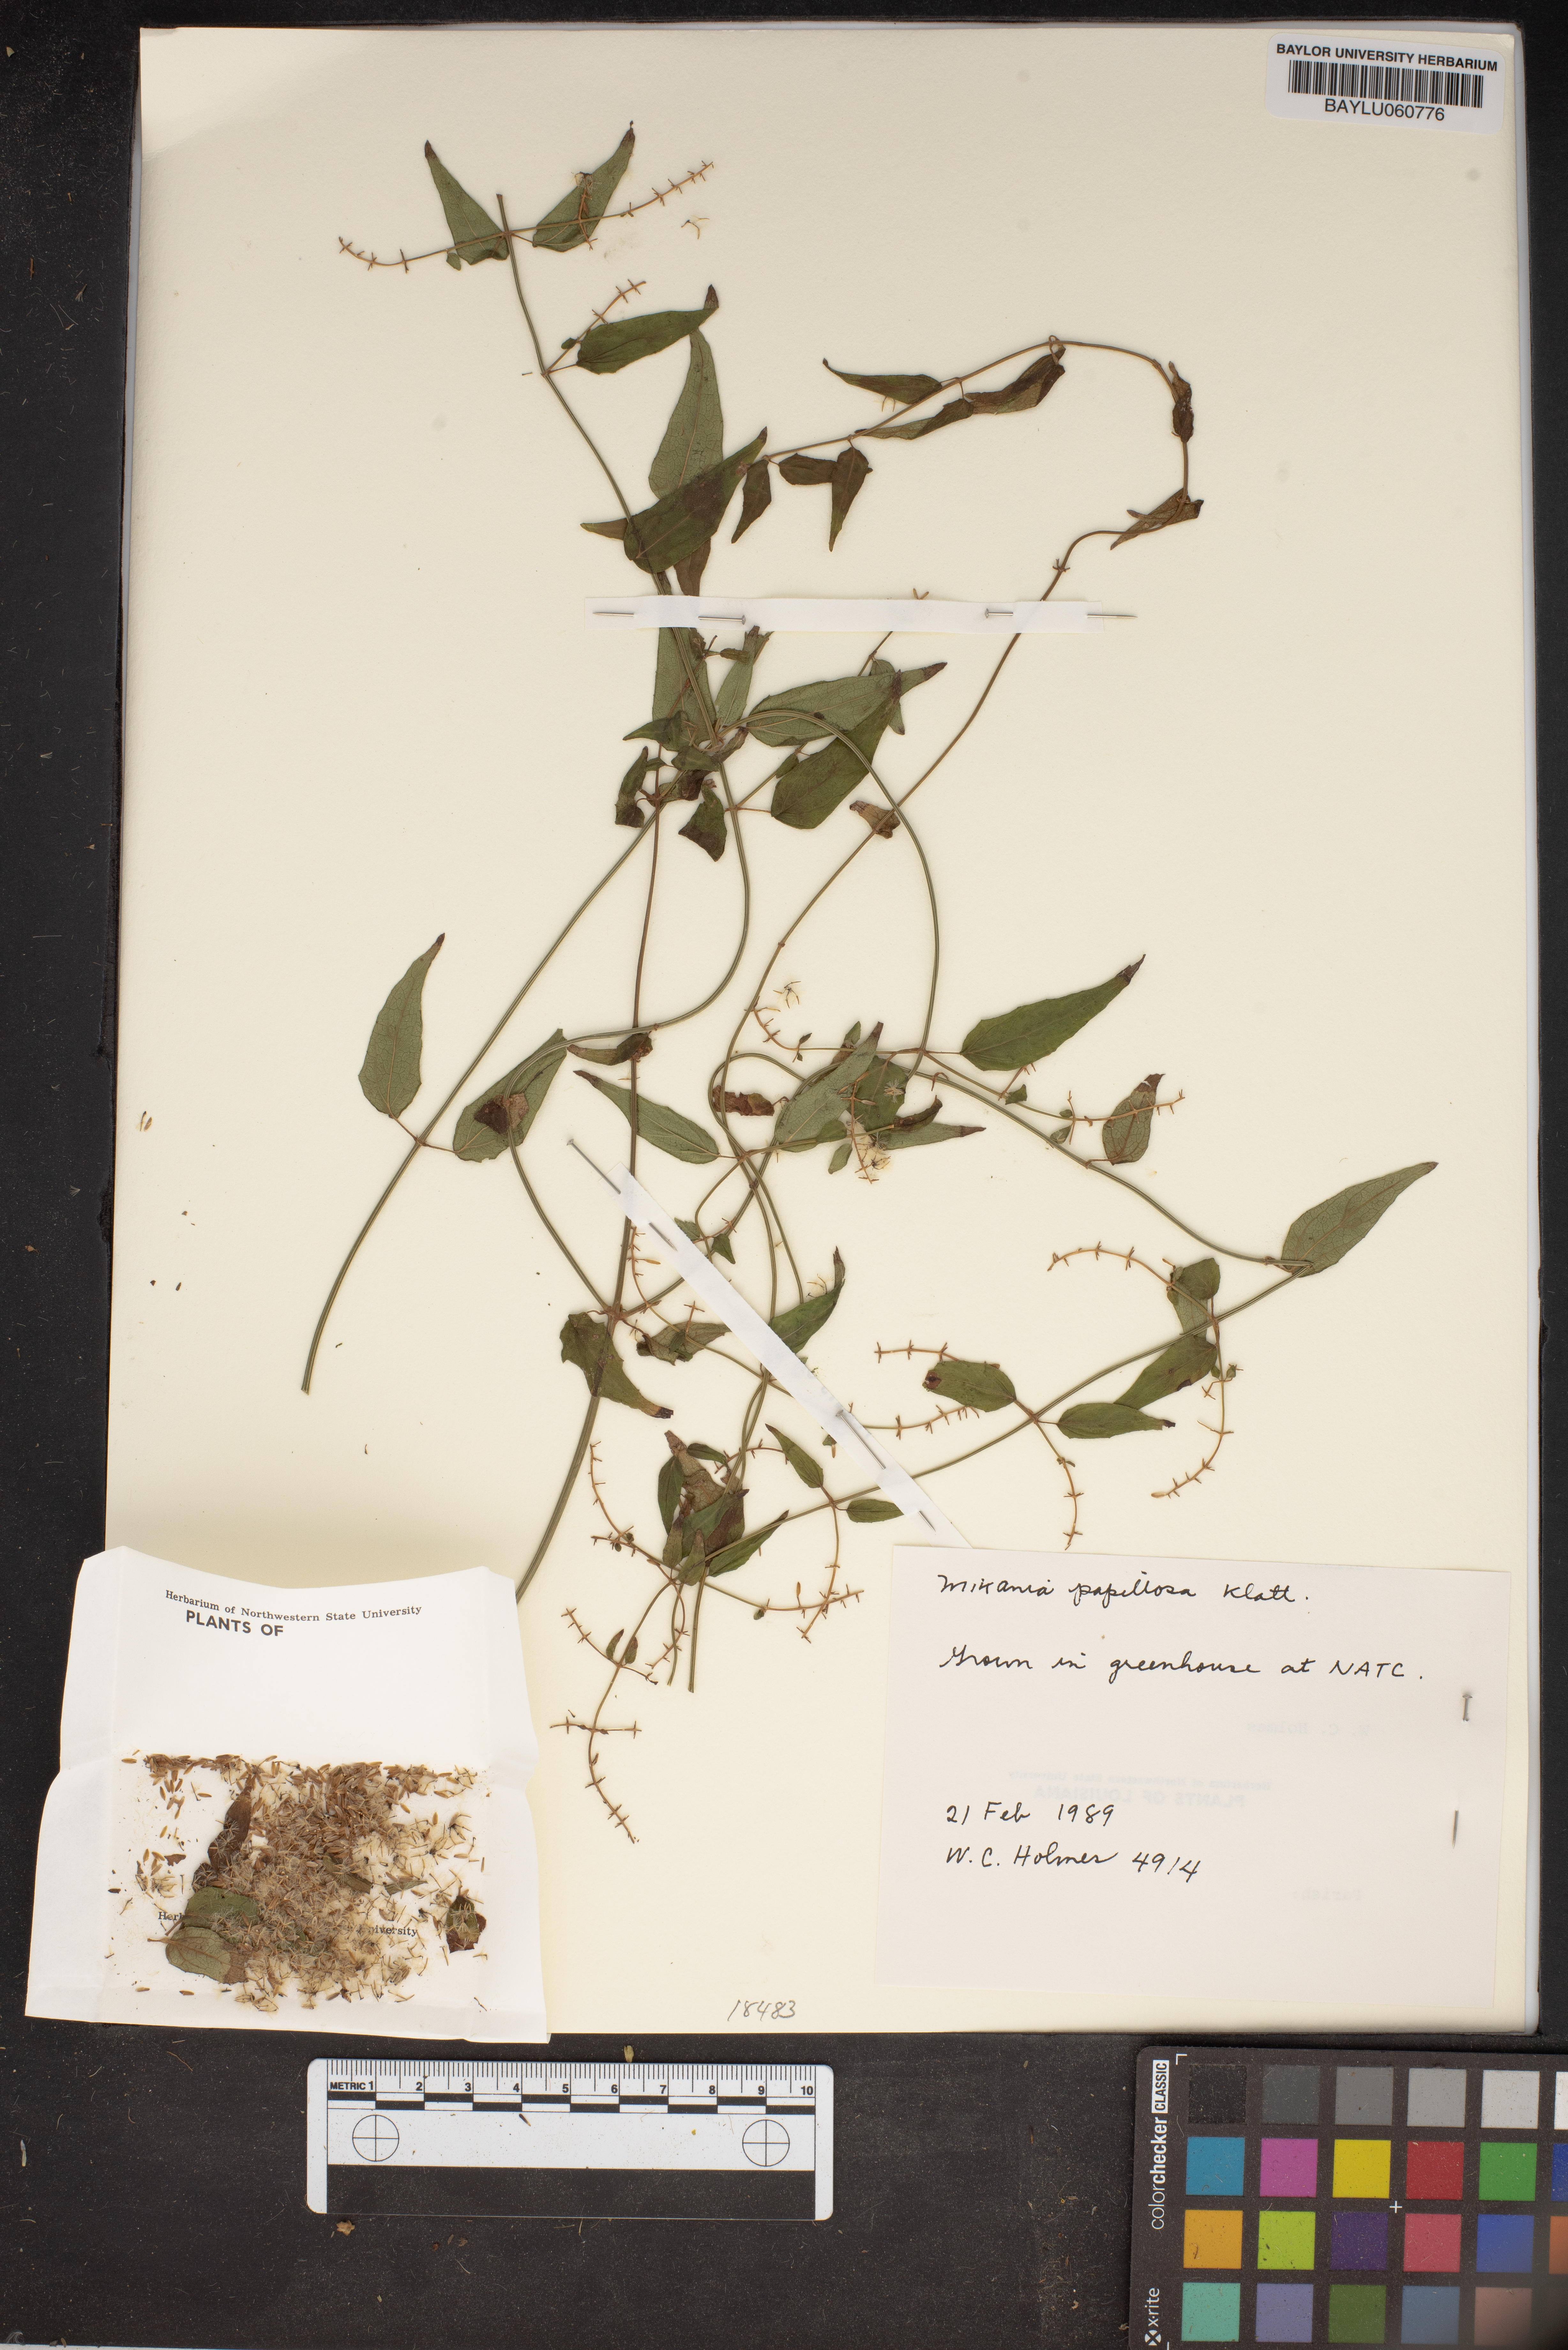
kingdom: Plantae
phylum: Tracheophyta
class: Magnoliopsida
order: Asterales
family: Asteraceae
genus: Mikania
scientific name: Mikania papillosa
